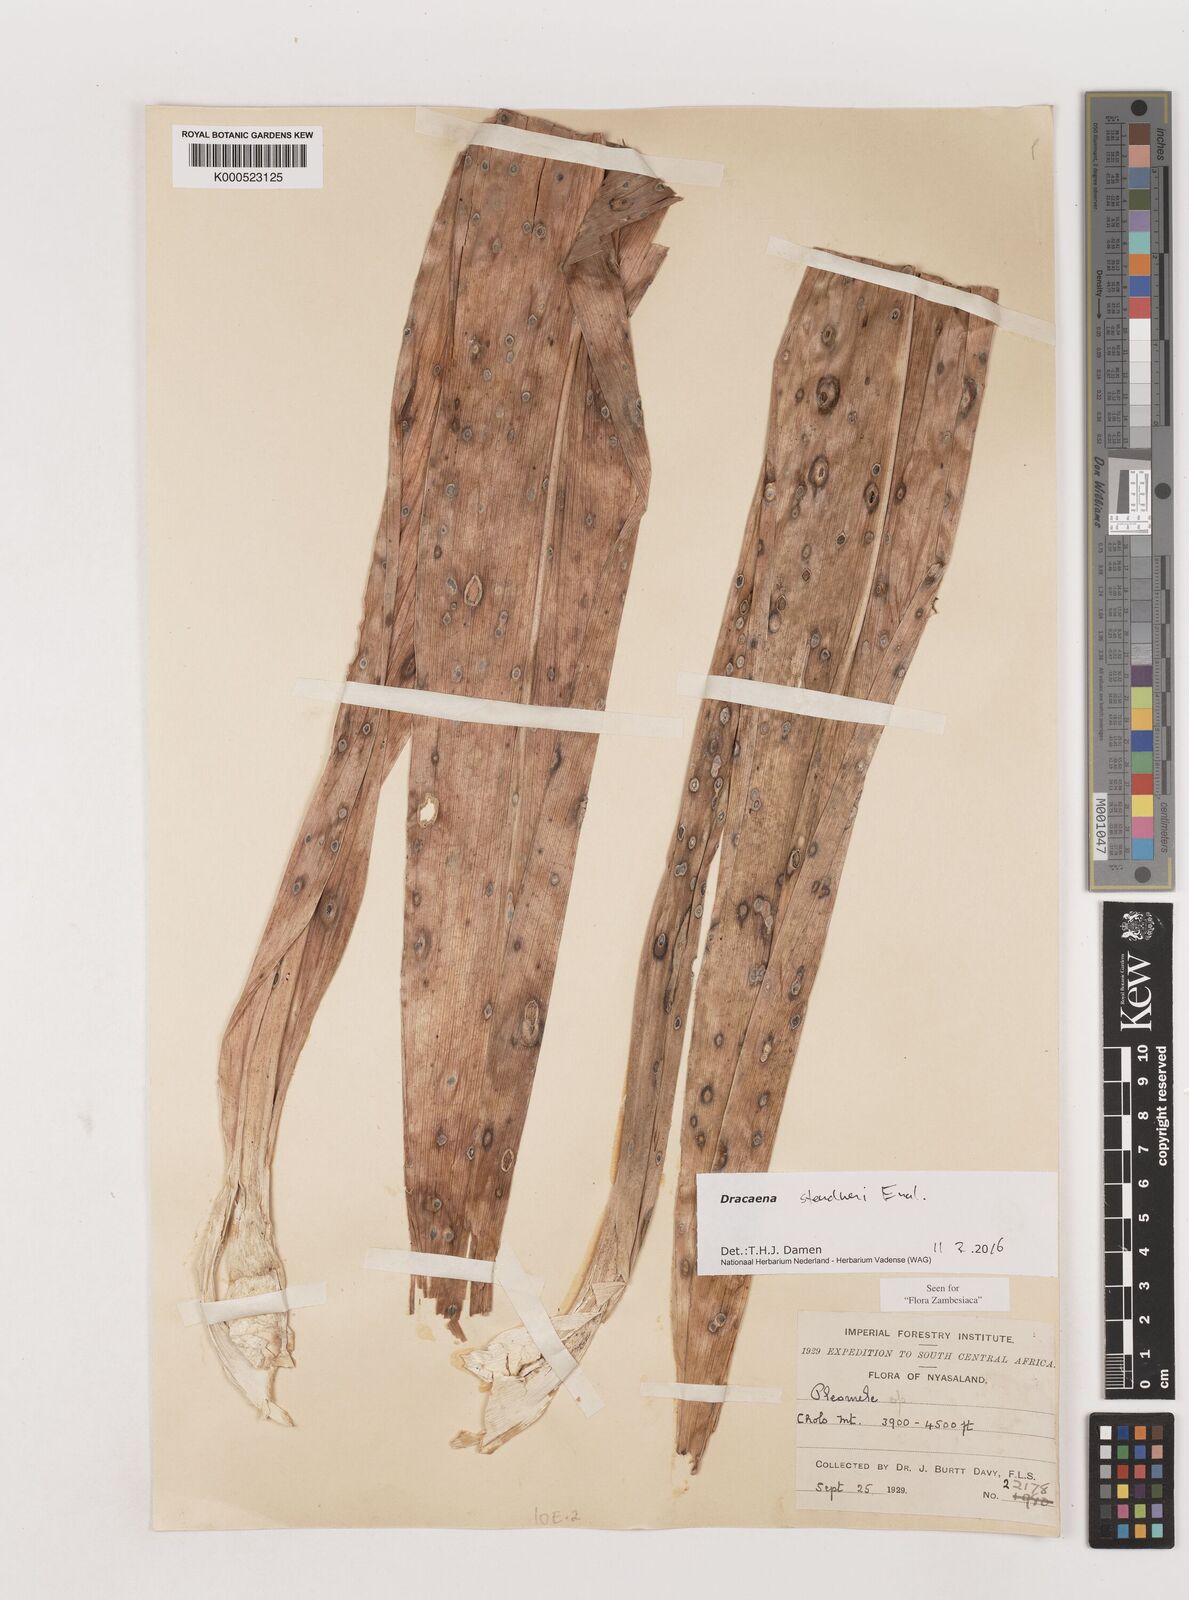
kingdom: Plantae
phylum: Tracheophyta
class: Liliopsida
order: Asparagales
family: Asparagaceae
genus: Dracaena
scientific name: Dracaena steudneri
